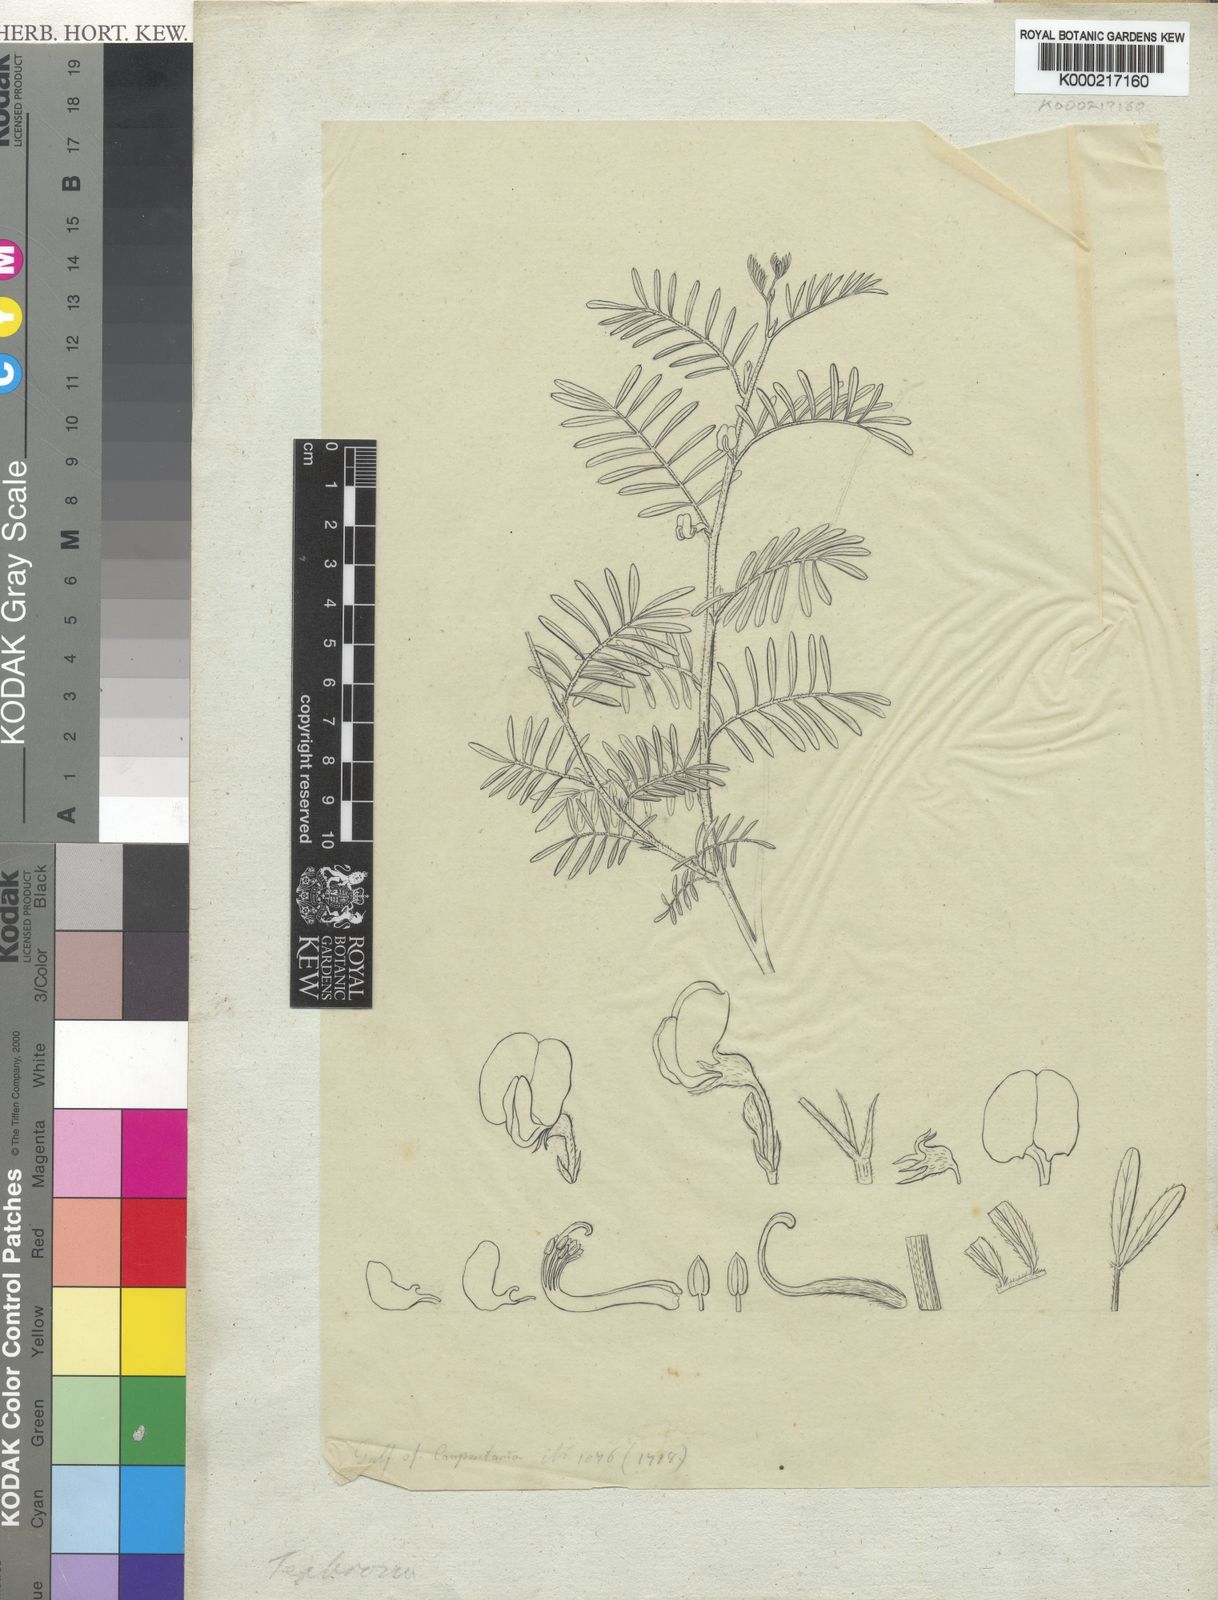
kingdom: Plantae
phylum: Tracheophyta
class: Magnoliopsida
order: Fabales
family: Fabaceae
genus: Tephrosia
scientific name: Tephrosia
